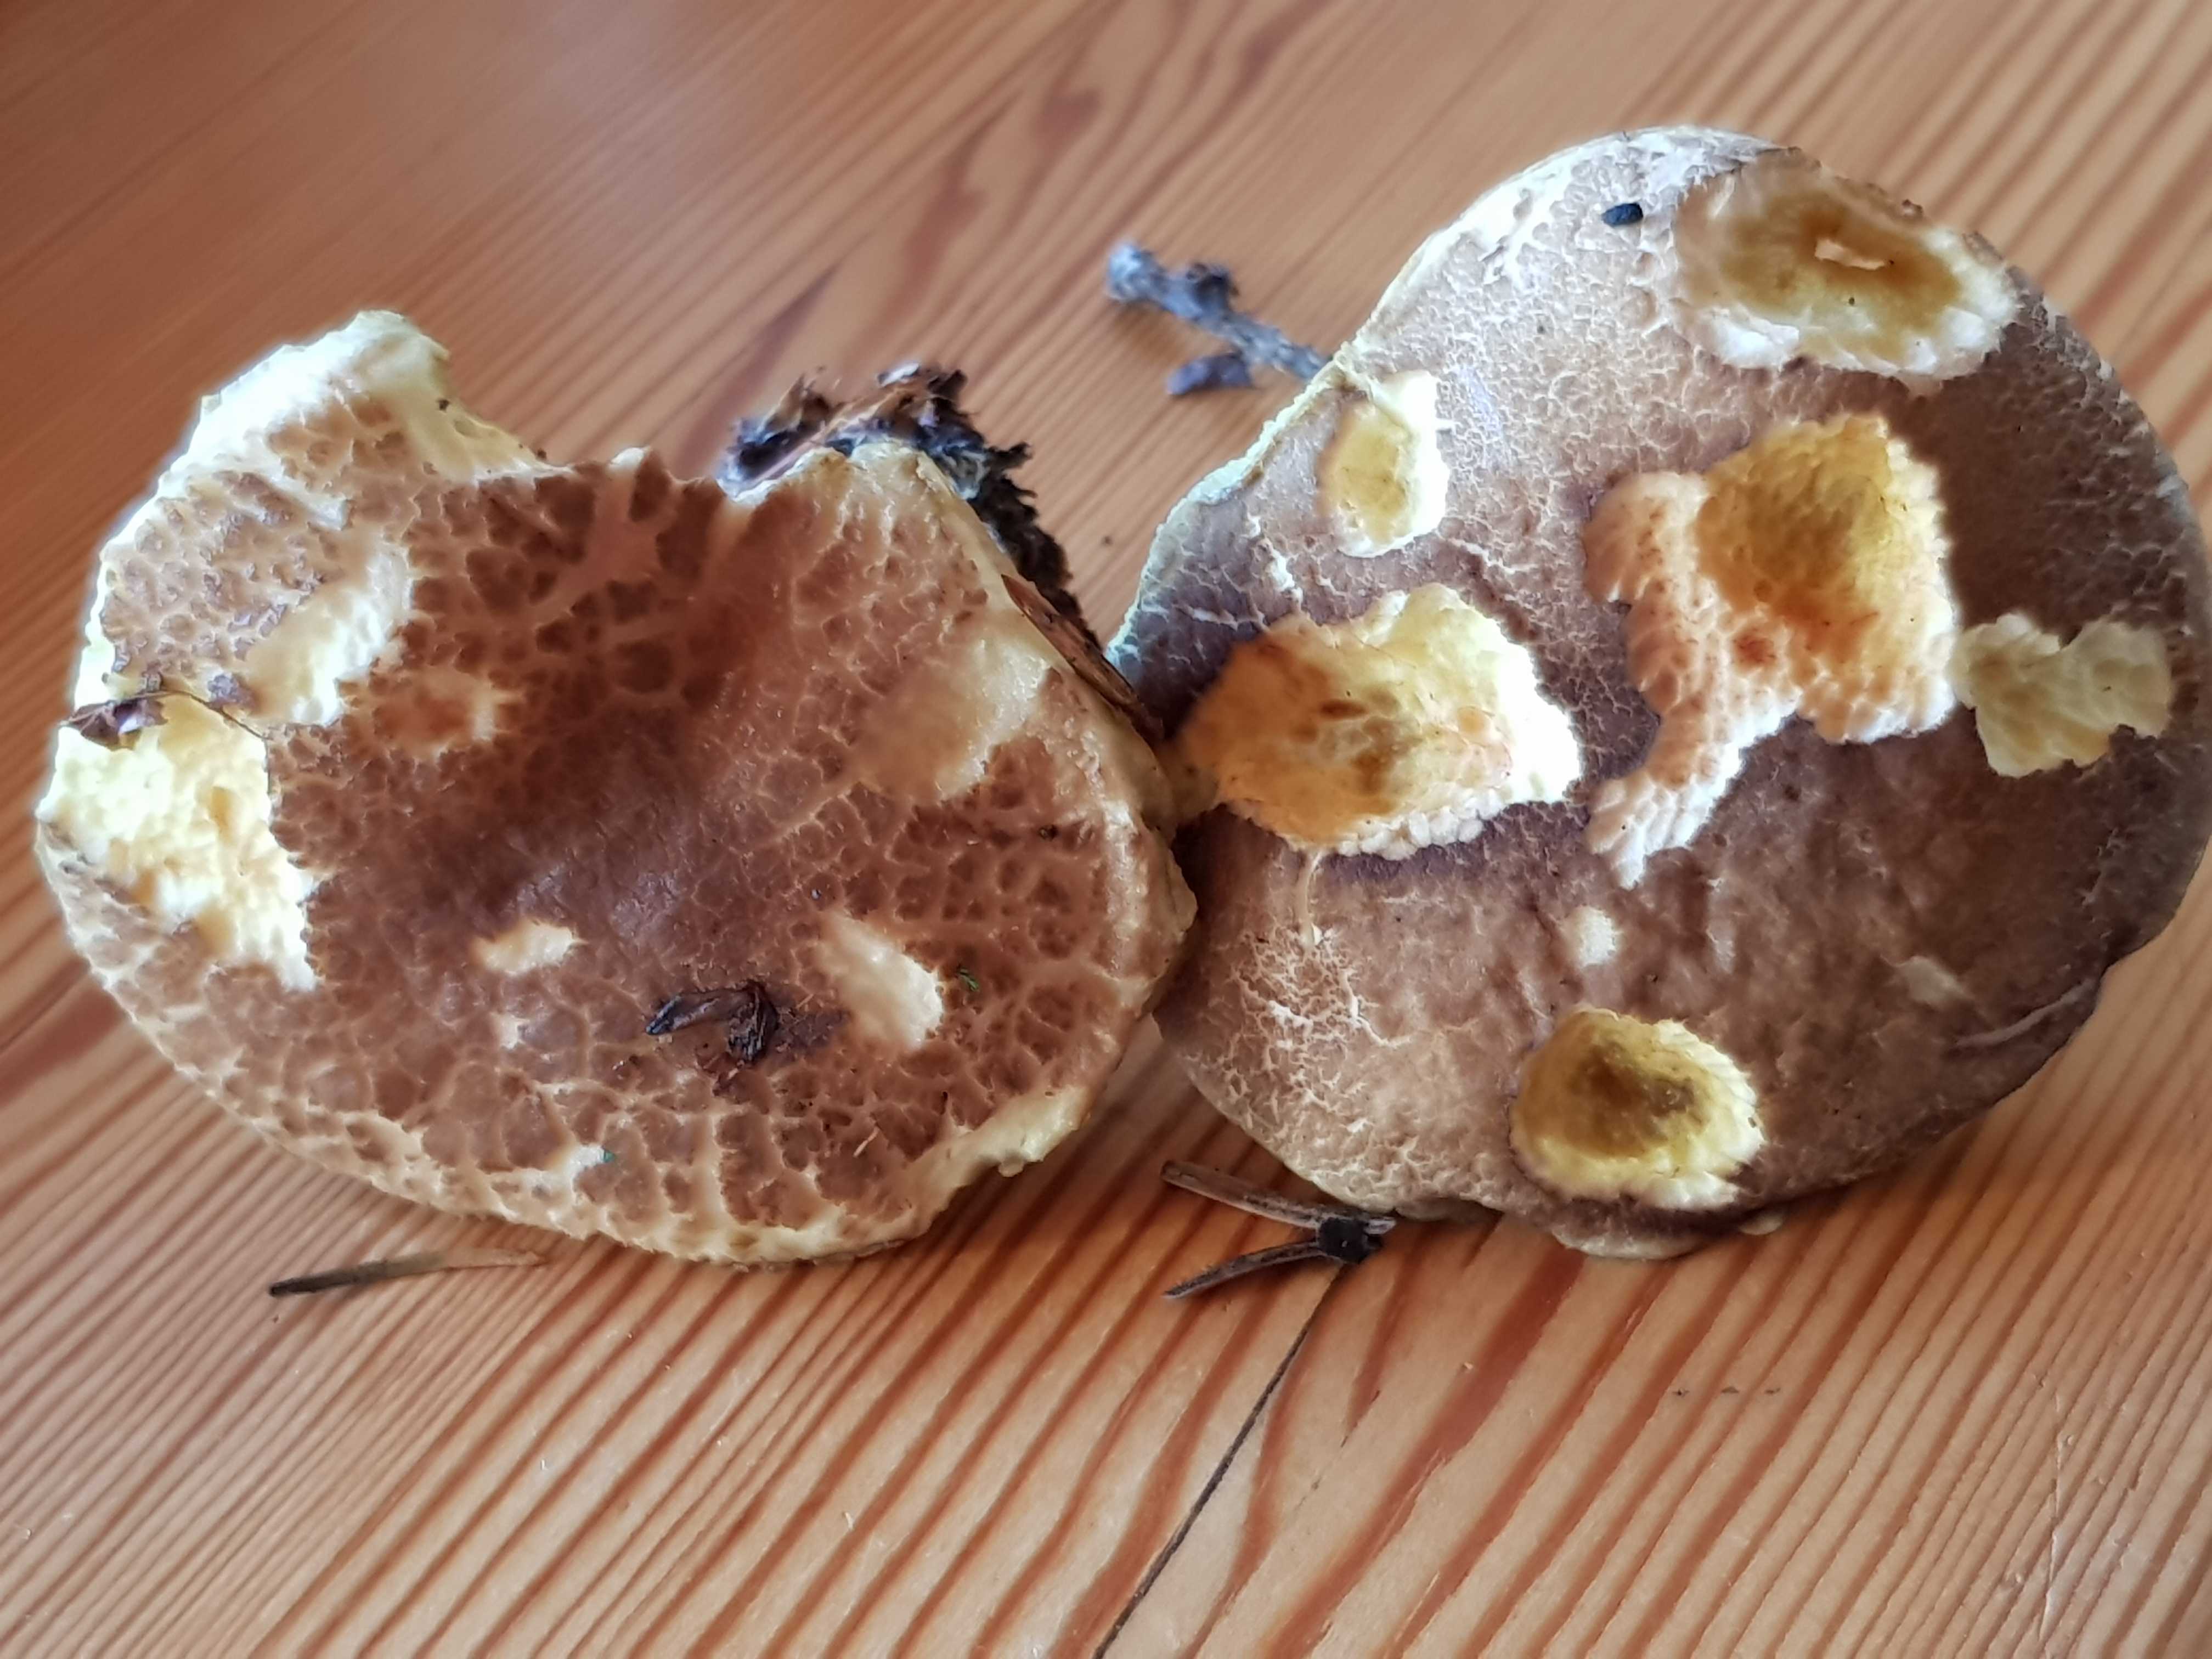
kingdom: Fungi
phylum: Basidiomycota
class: Agaricomycetes
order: Boletales
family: Boletaceae
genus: Xerocomellus
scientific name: Xerocomellus chrysenteron
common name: rødsprukken rørhat
